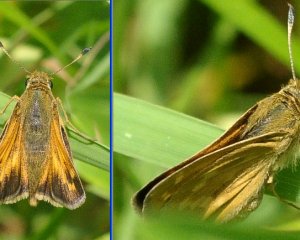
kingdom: Animalia
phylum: Arthropoda
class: Insecta
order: Lepidoptera
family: Hesperiidae
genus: Hesperia
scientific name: Hesperia sassacus
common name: Sassacus Skipper
